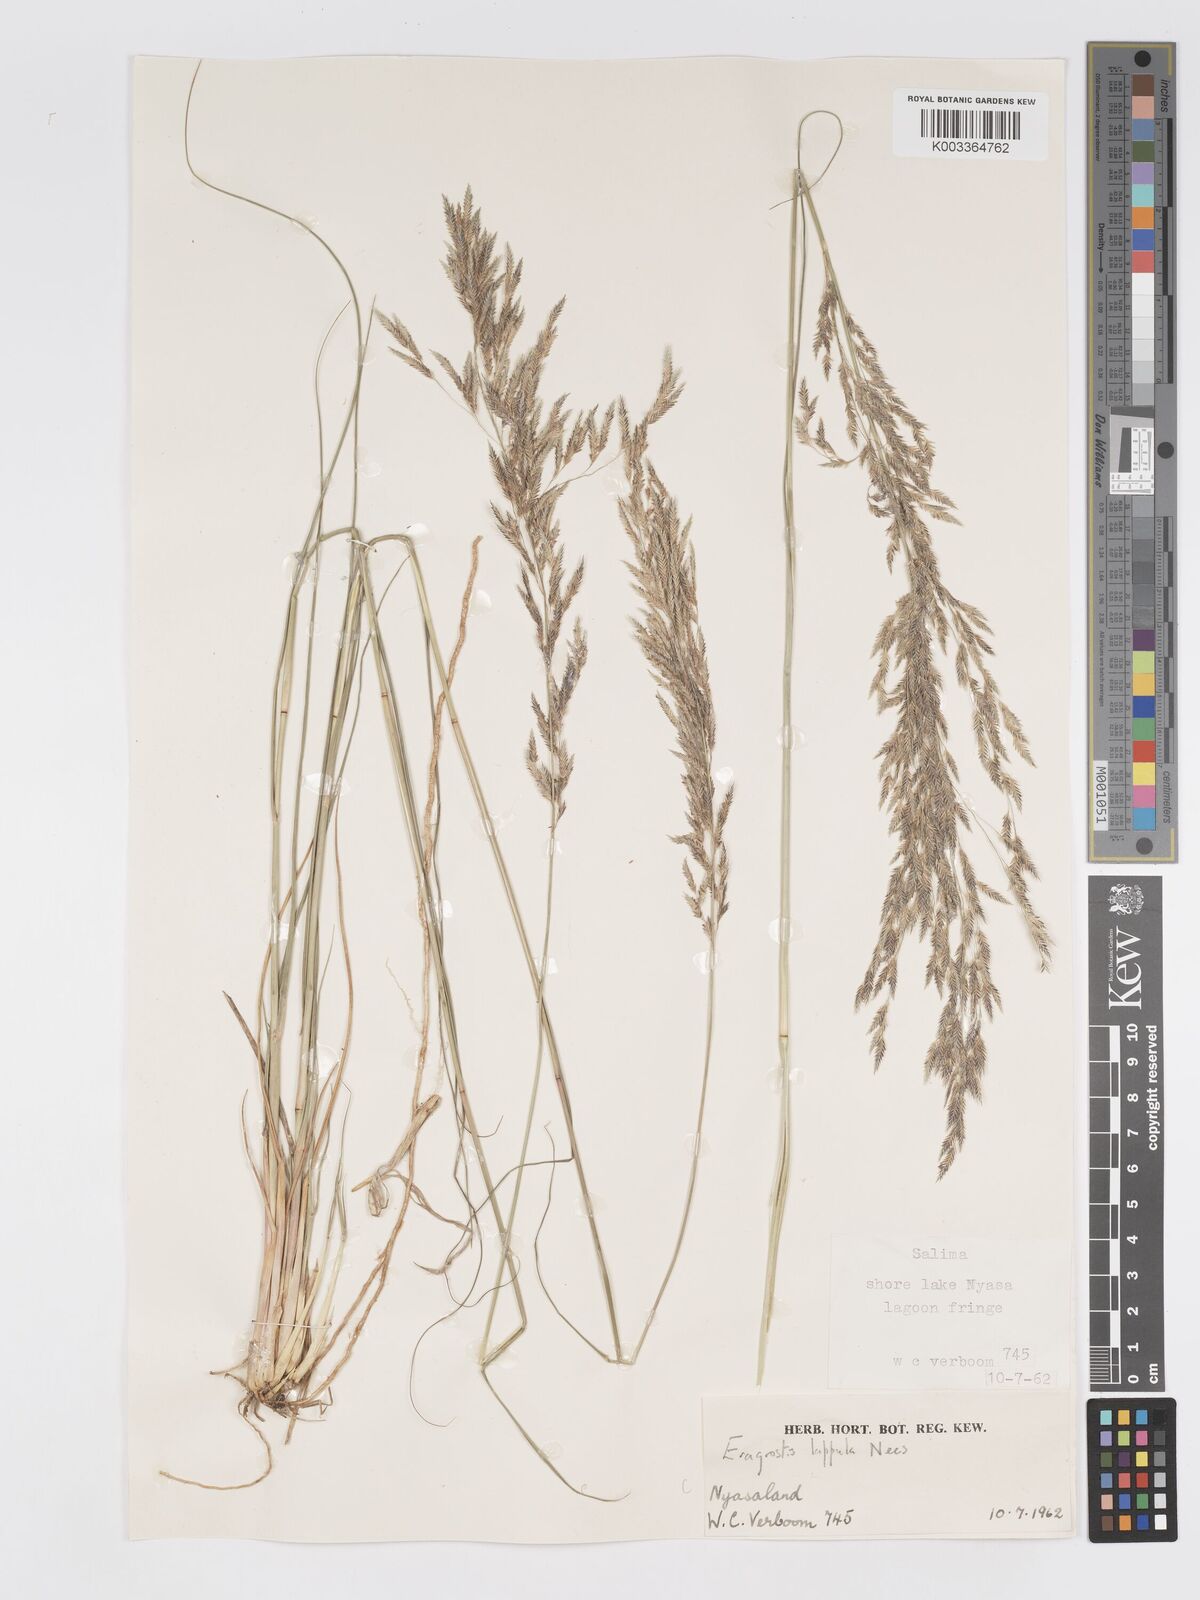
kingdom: Plantae
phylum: Tracheophyta
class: Liliopsida
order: Poales
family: Poaceae
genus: Eragrostis
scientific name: Eragrostis hierniana
